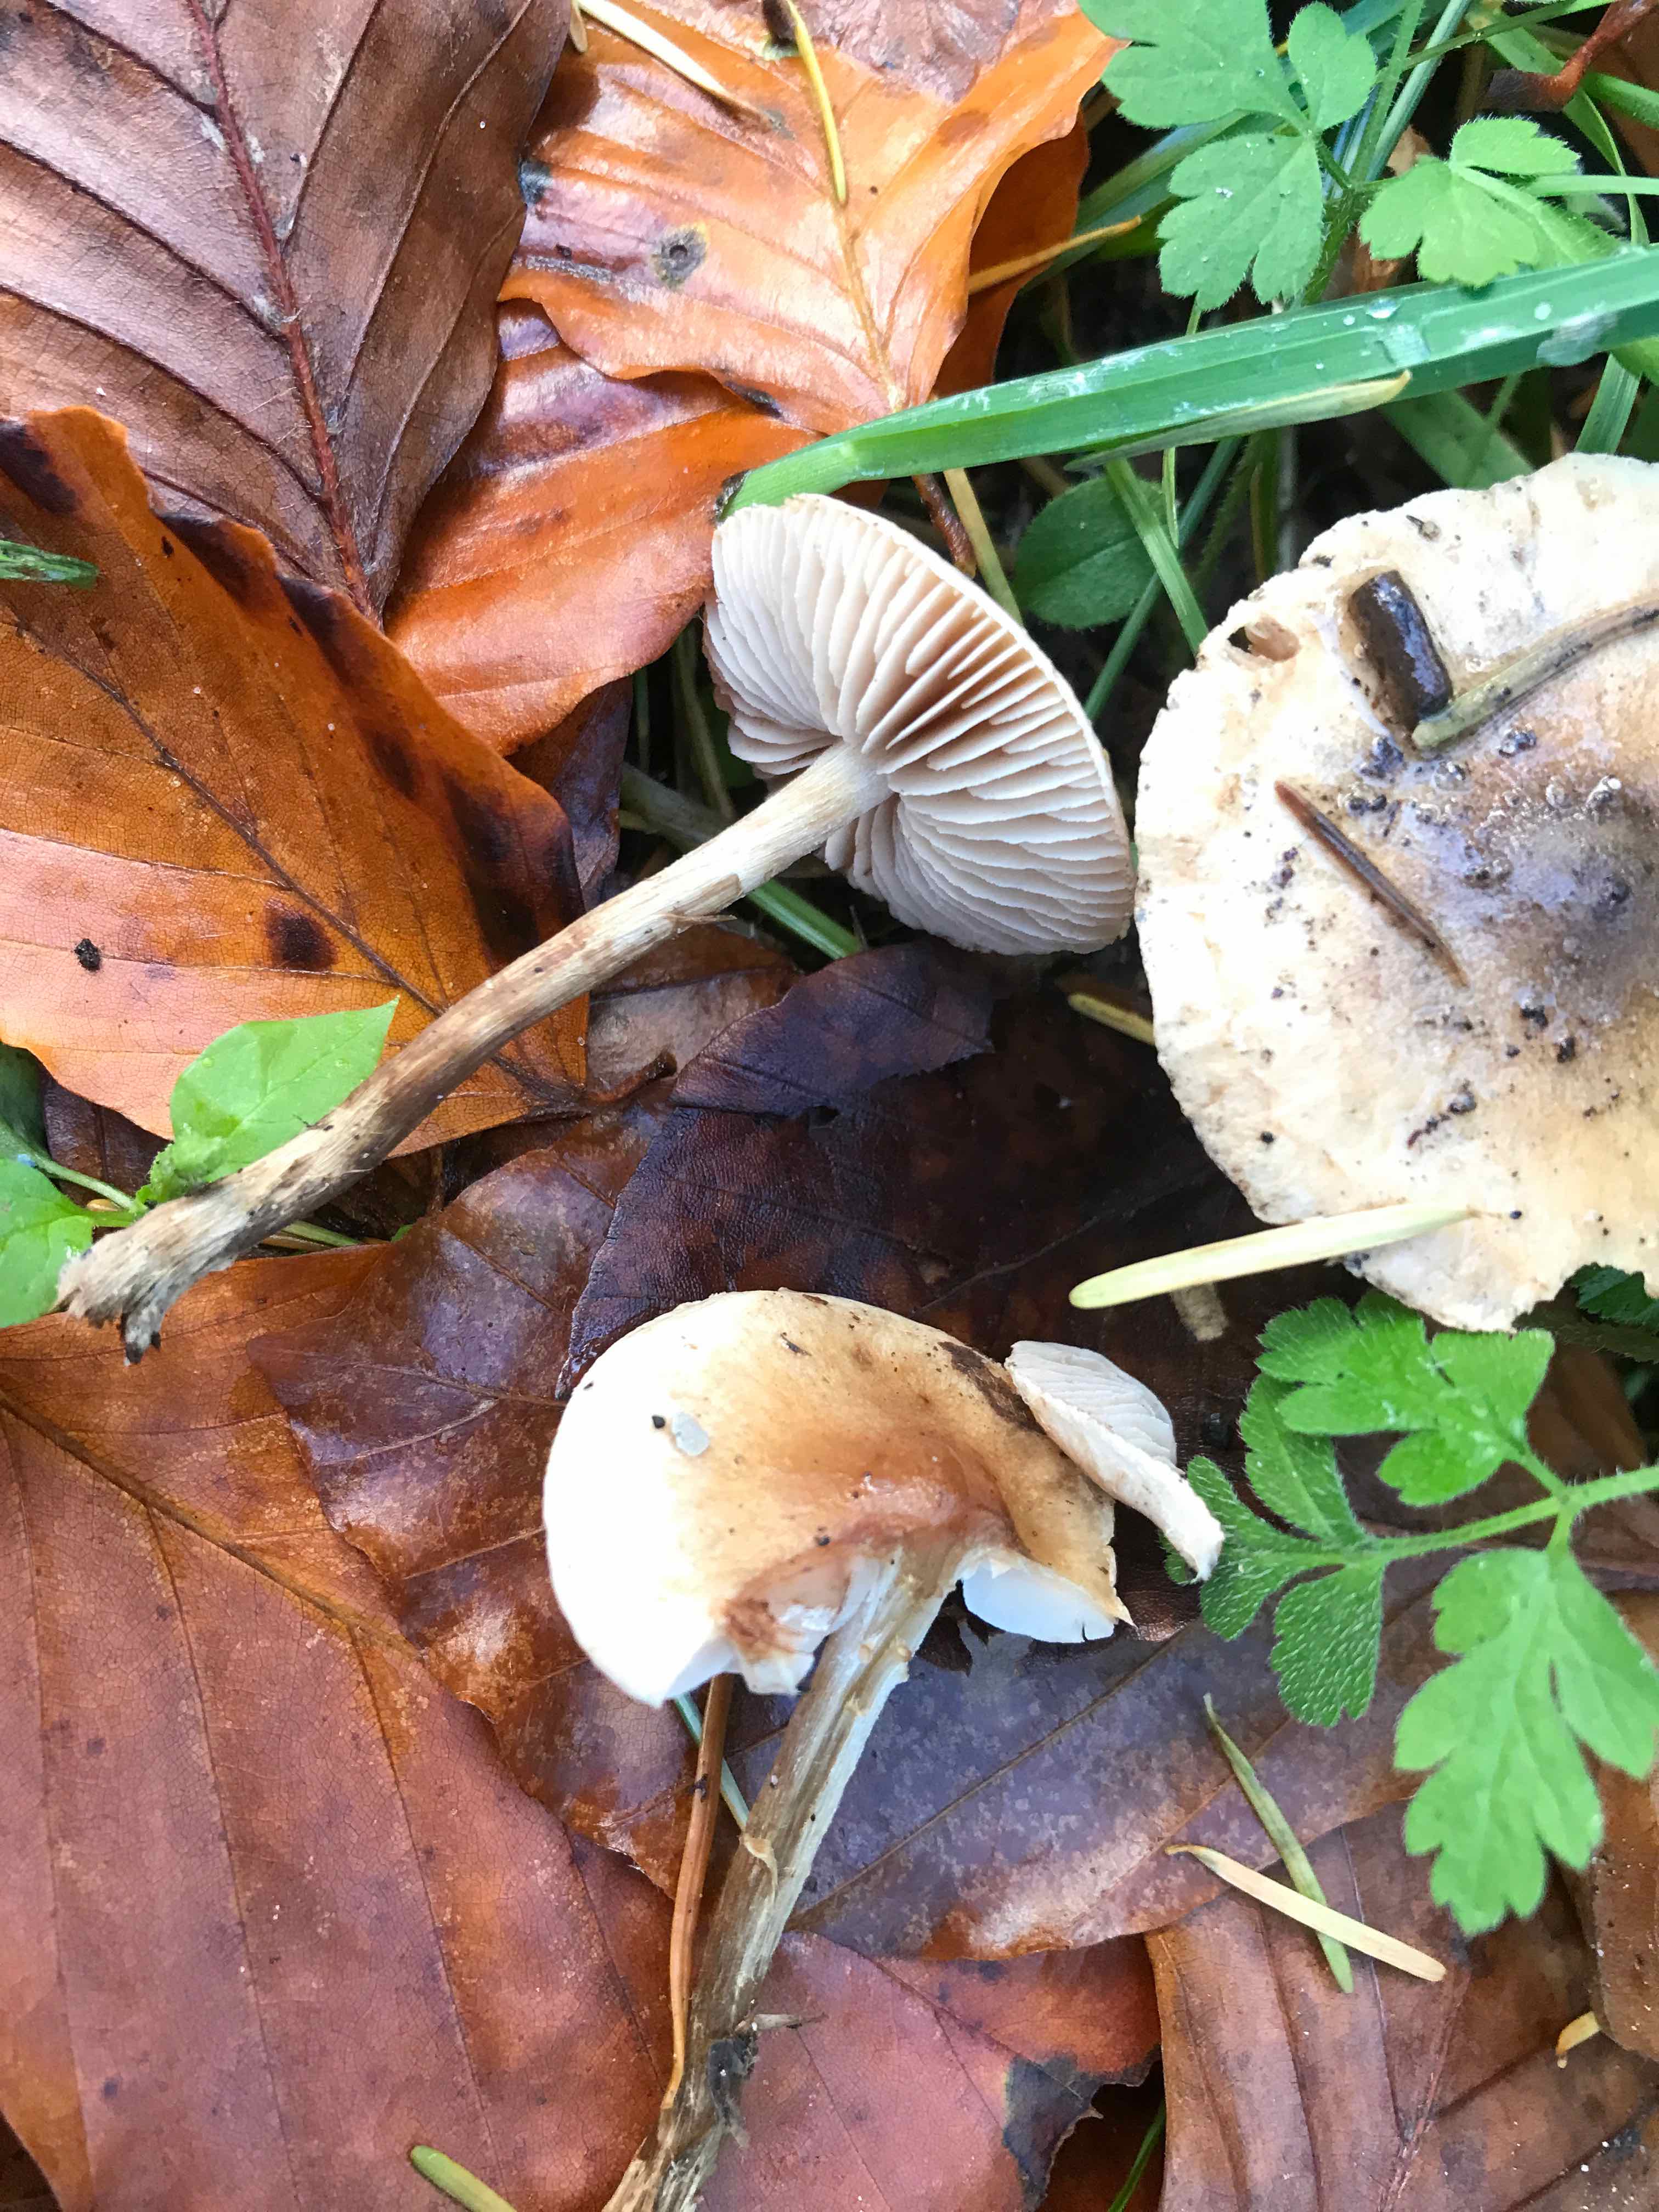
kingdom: Fungi
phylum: Basidiomycota
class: Agaricomycetes
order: Agaricales
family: Hymenogastraceae
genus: Hebeloma
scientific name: Hebeloma mesophaeum
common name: lerbrun tåreblad
